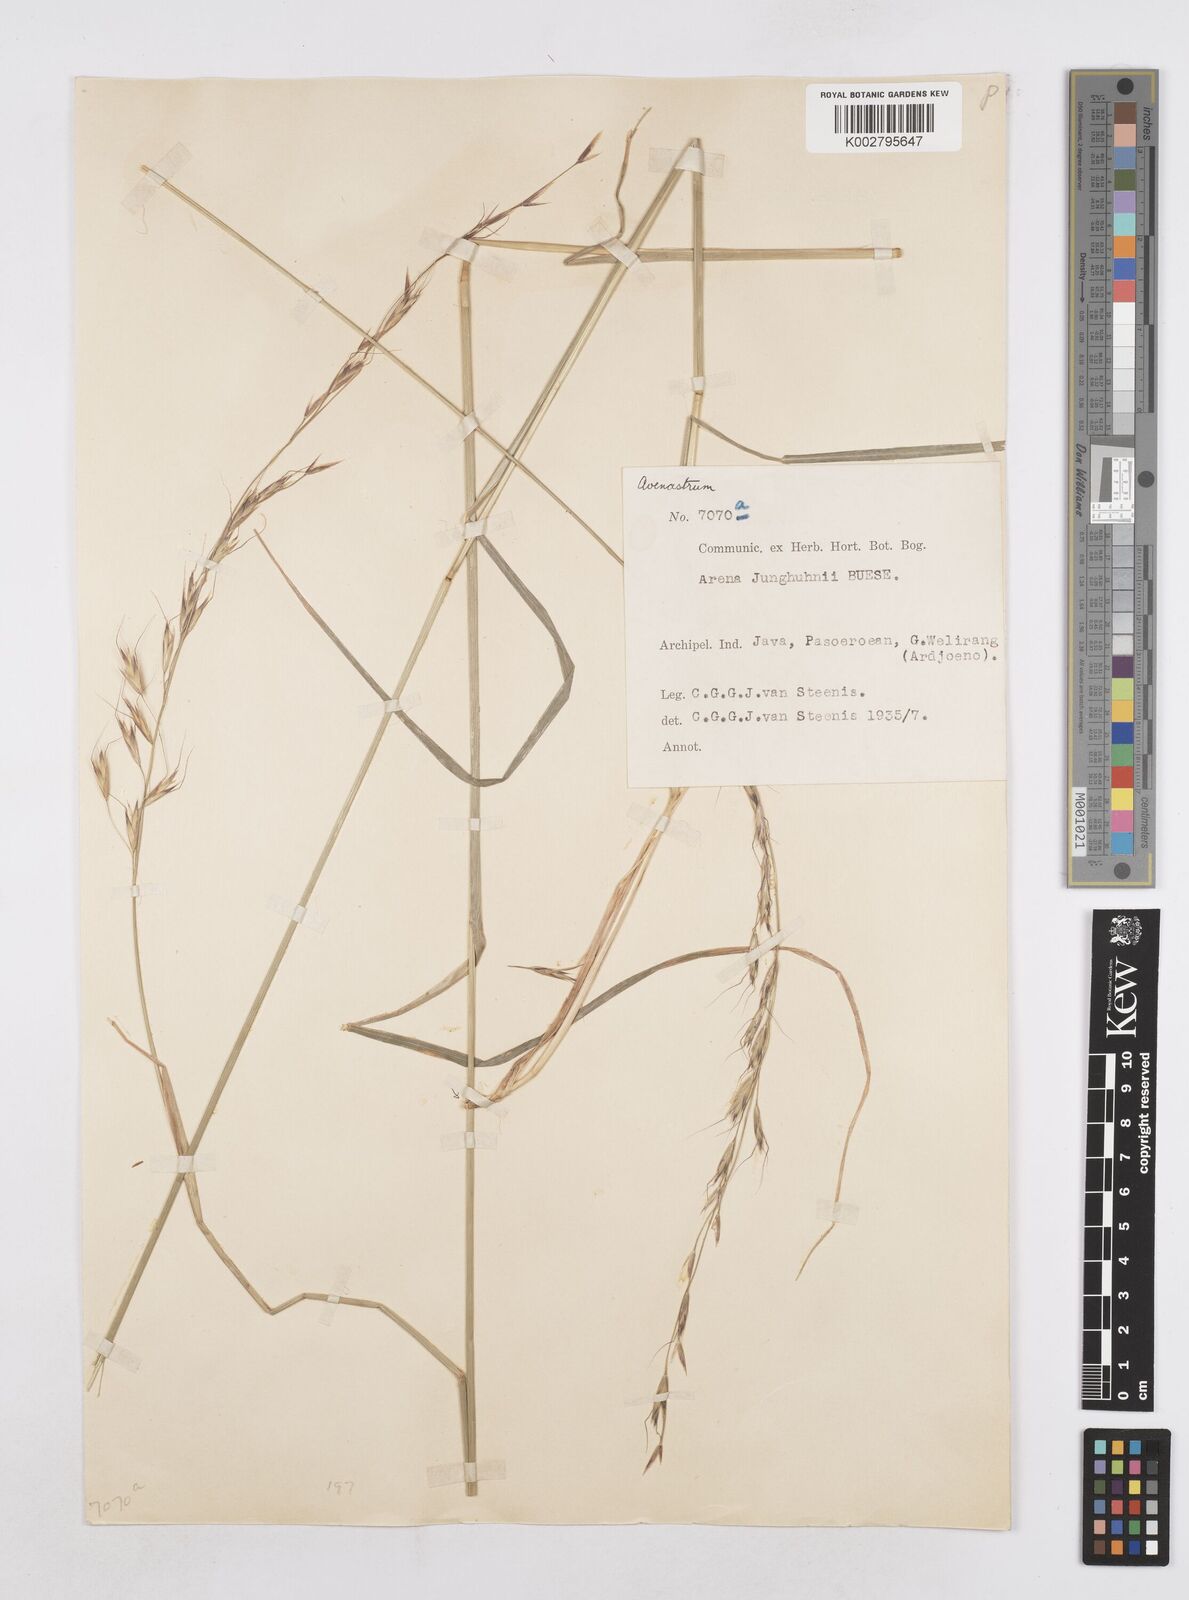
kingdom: Plantae
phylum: Tracheophyta
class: Liliopsida
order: Poales
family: Poaceae
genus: Trisetopsis
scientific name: Trisetopsis junghuhnii
